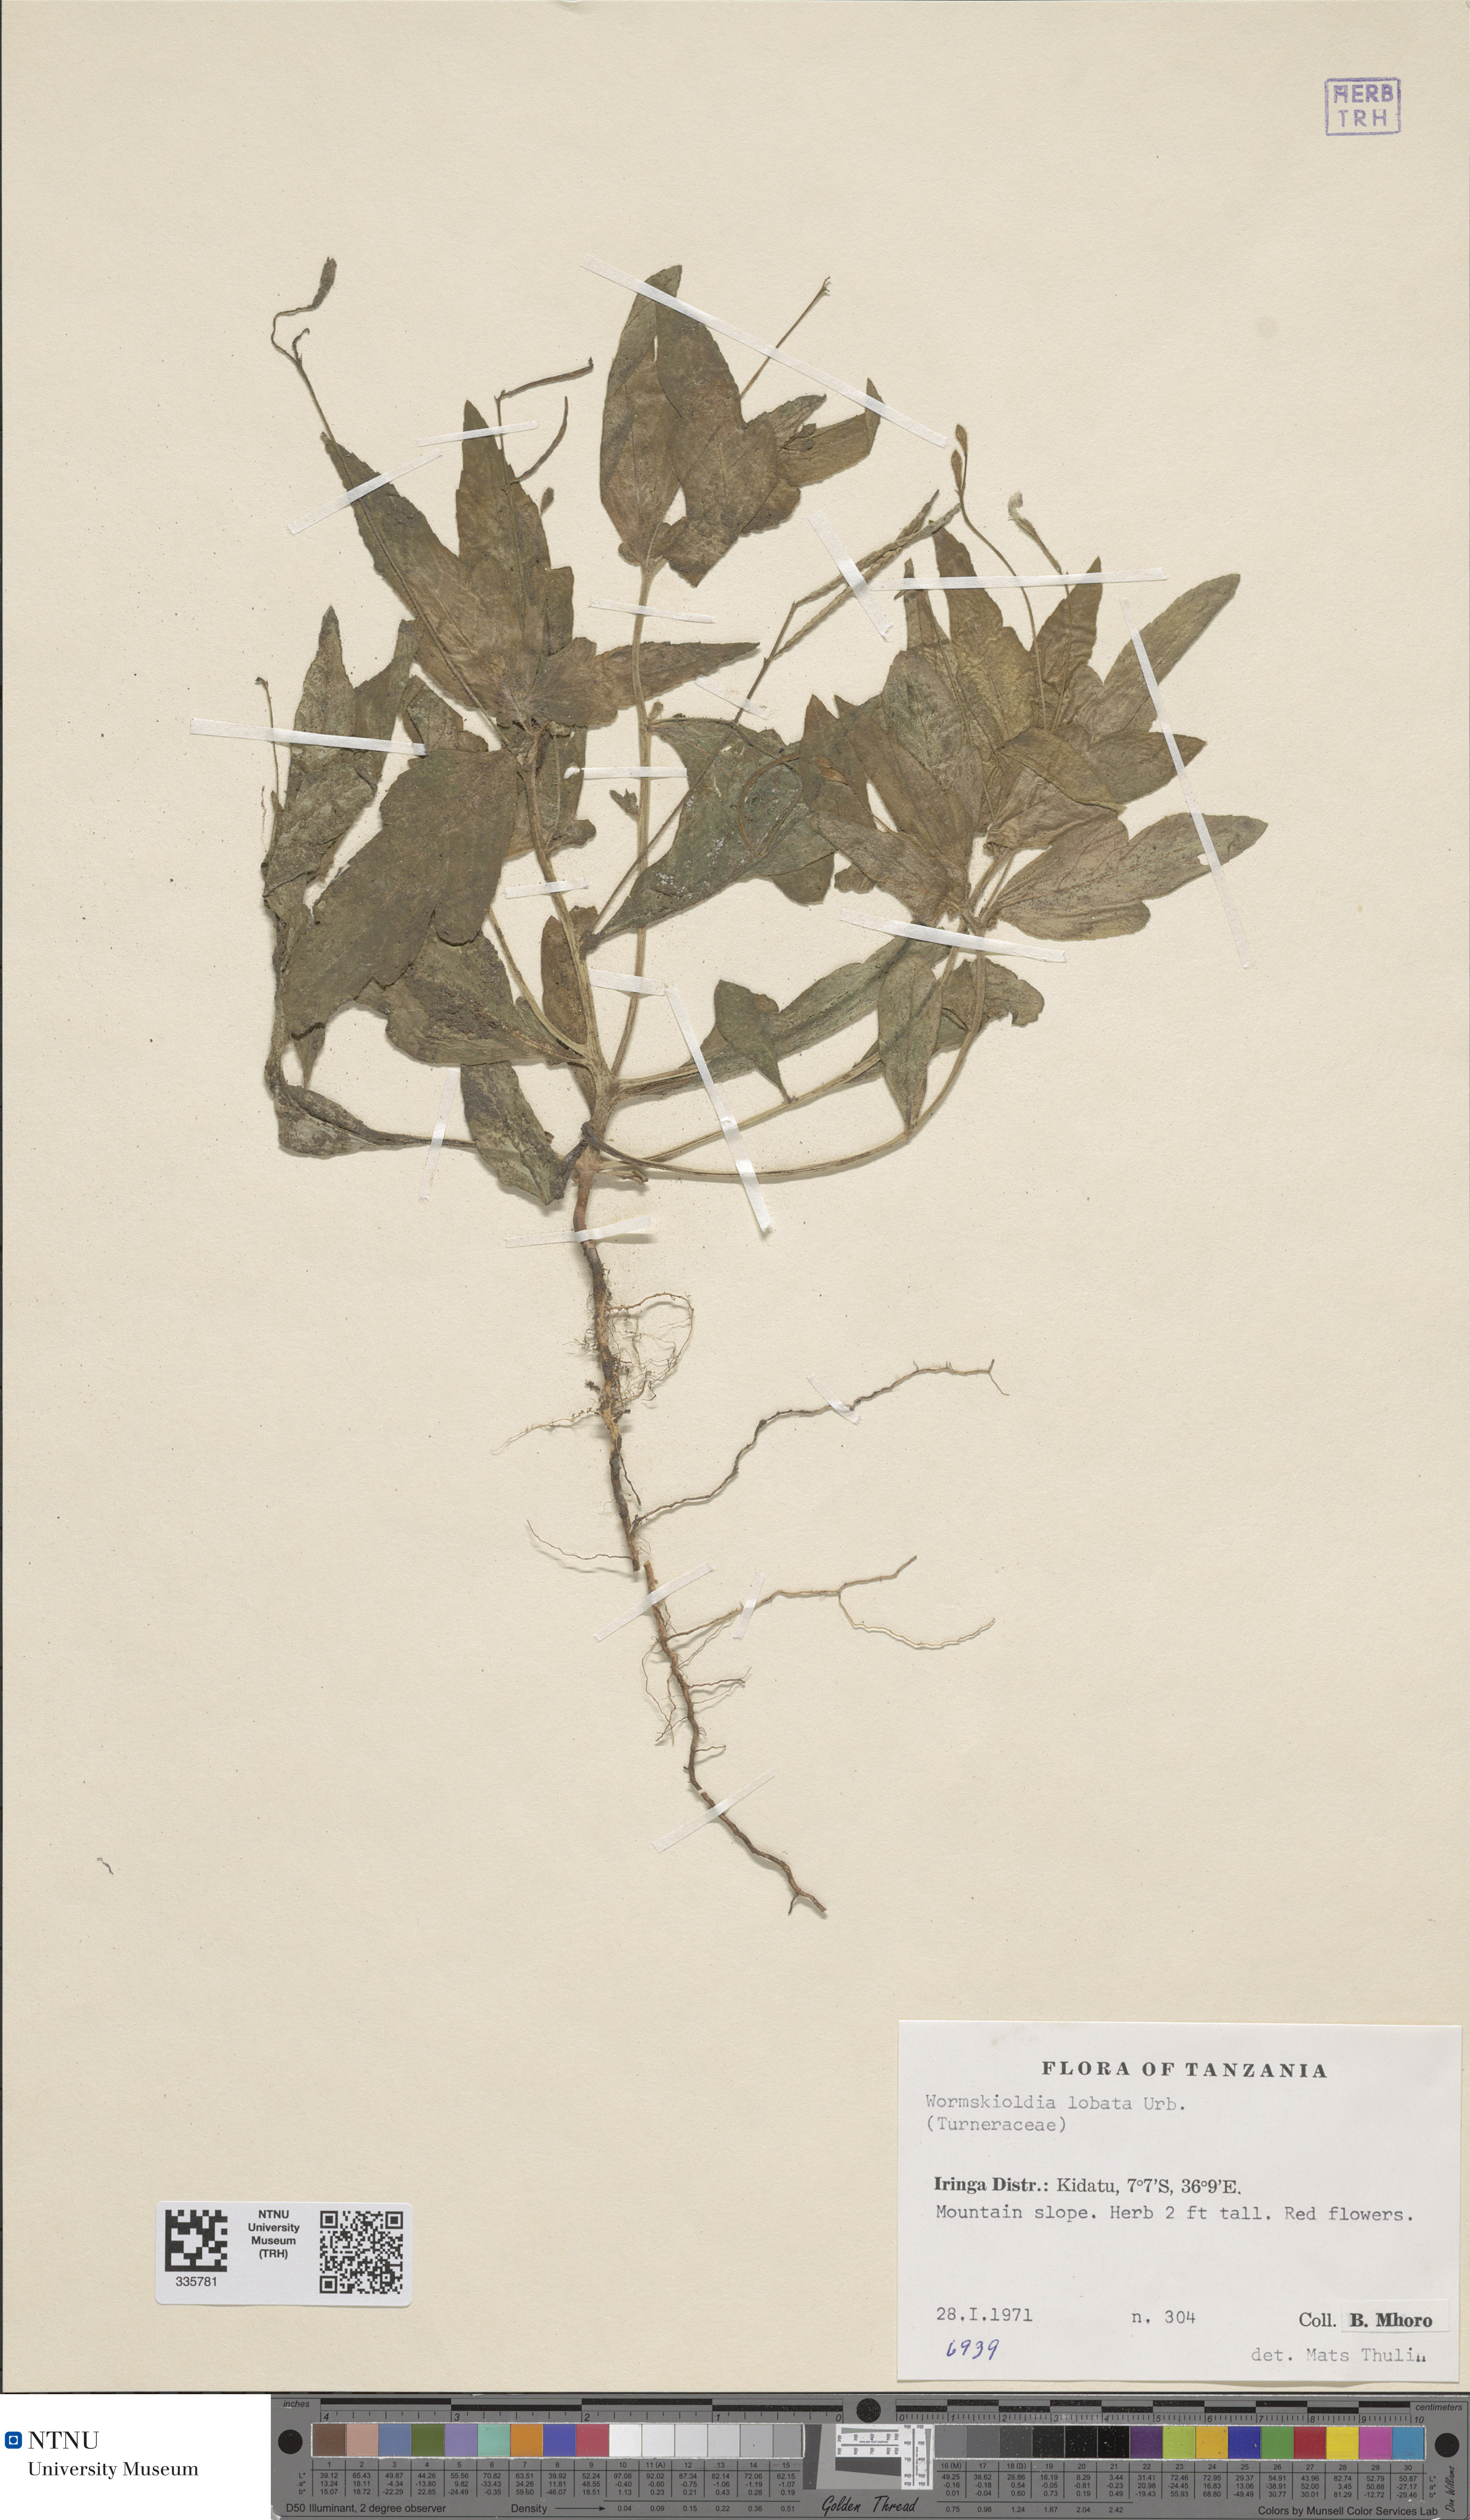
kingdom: Plantae
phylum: Tracheophyta
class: Magnoliopsida
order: Malpighiales
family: Turneraceae
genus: Tricliceras
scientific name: Tricliceras lobatum
